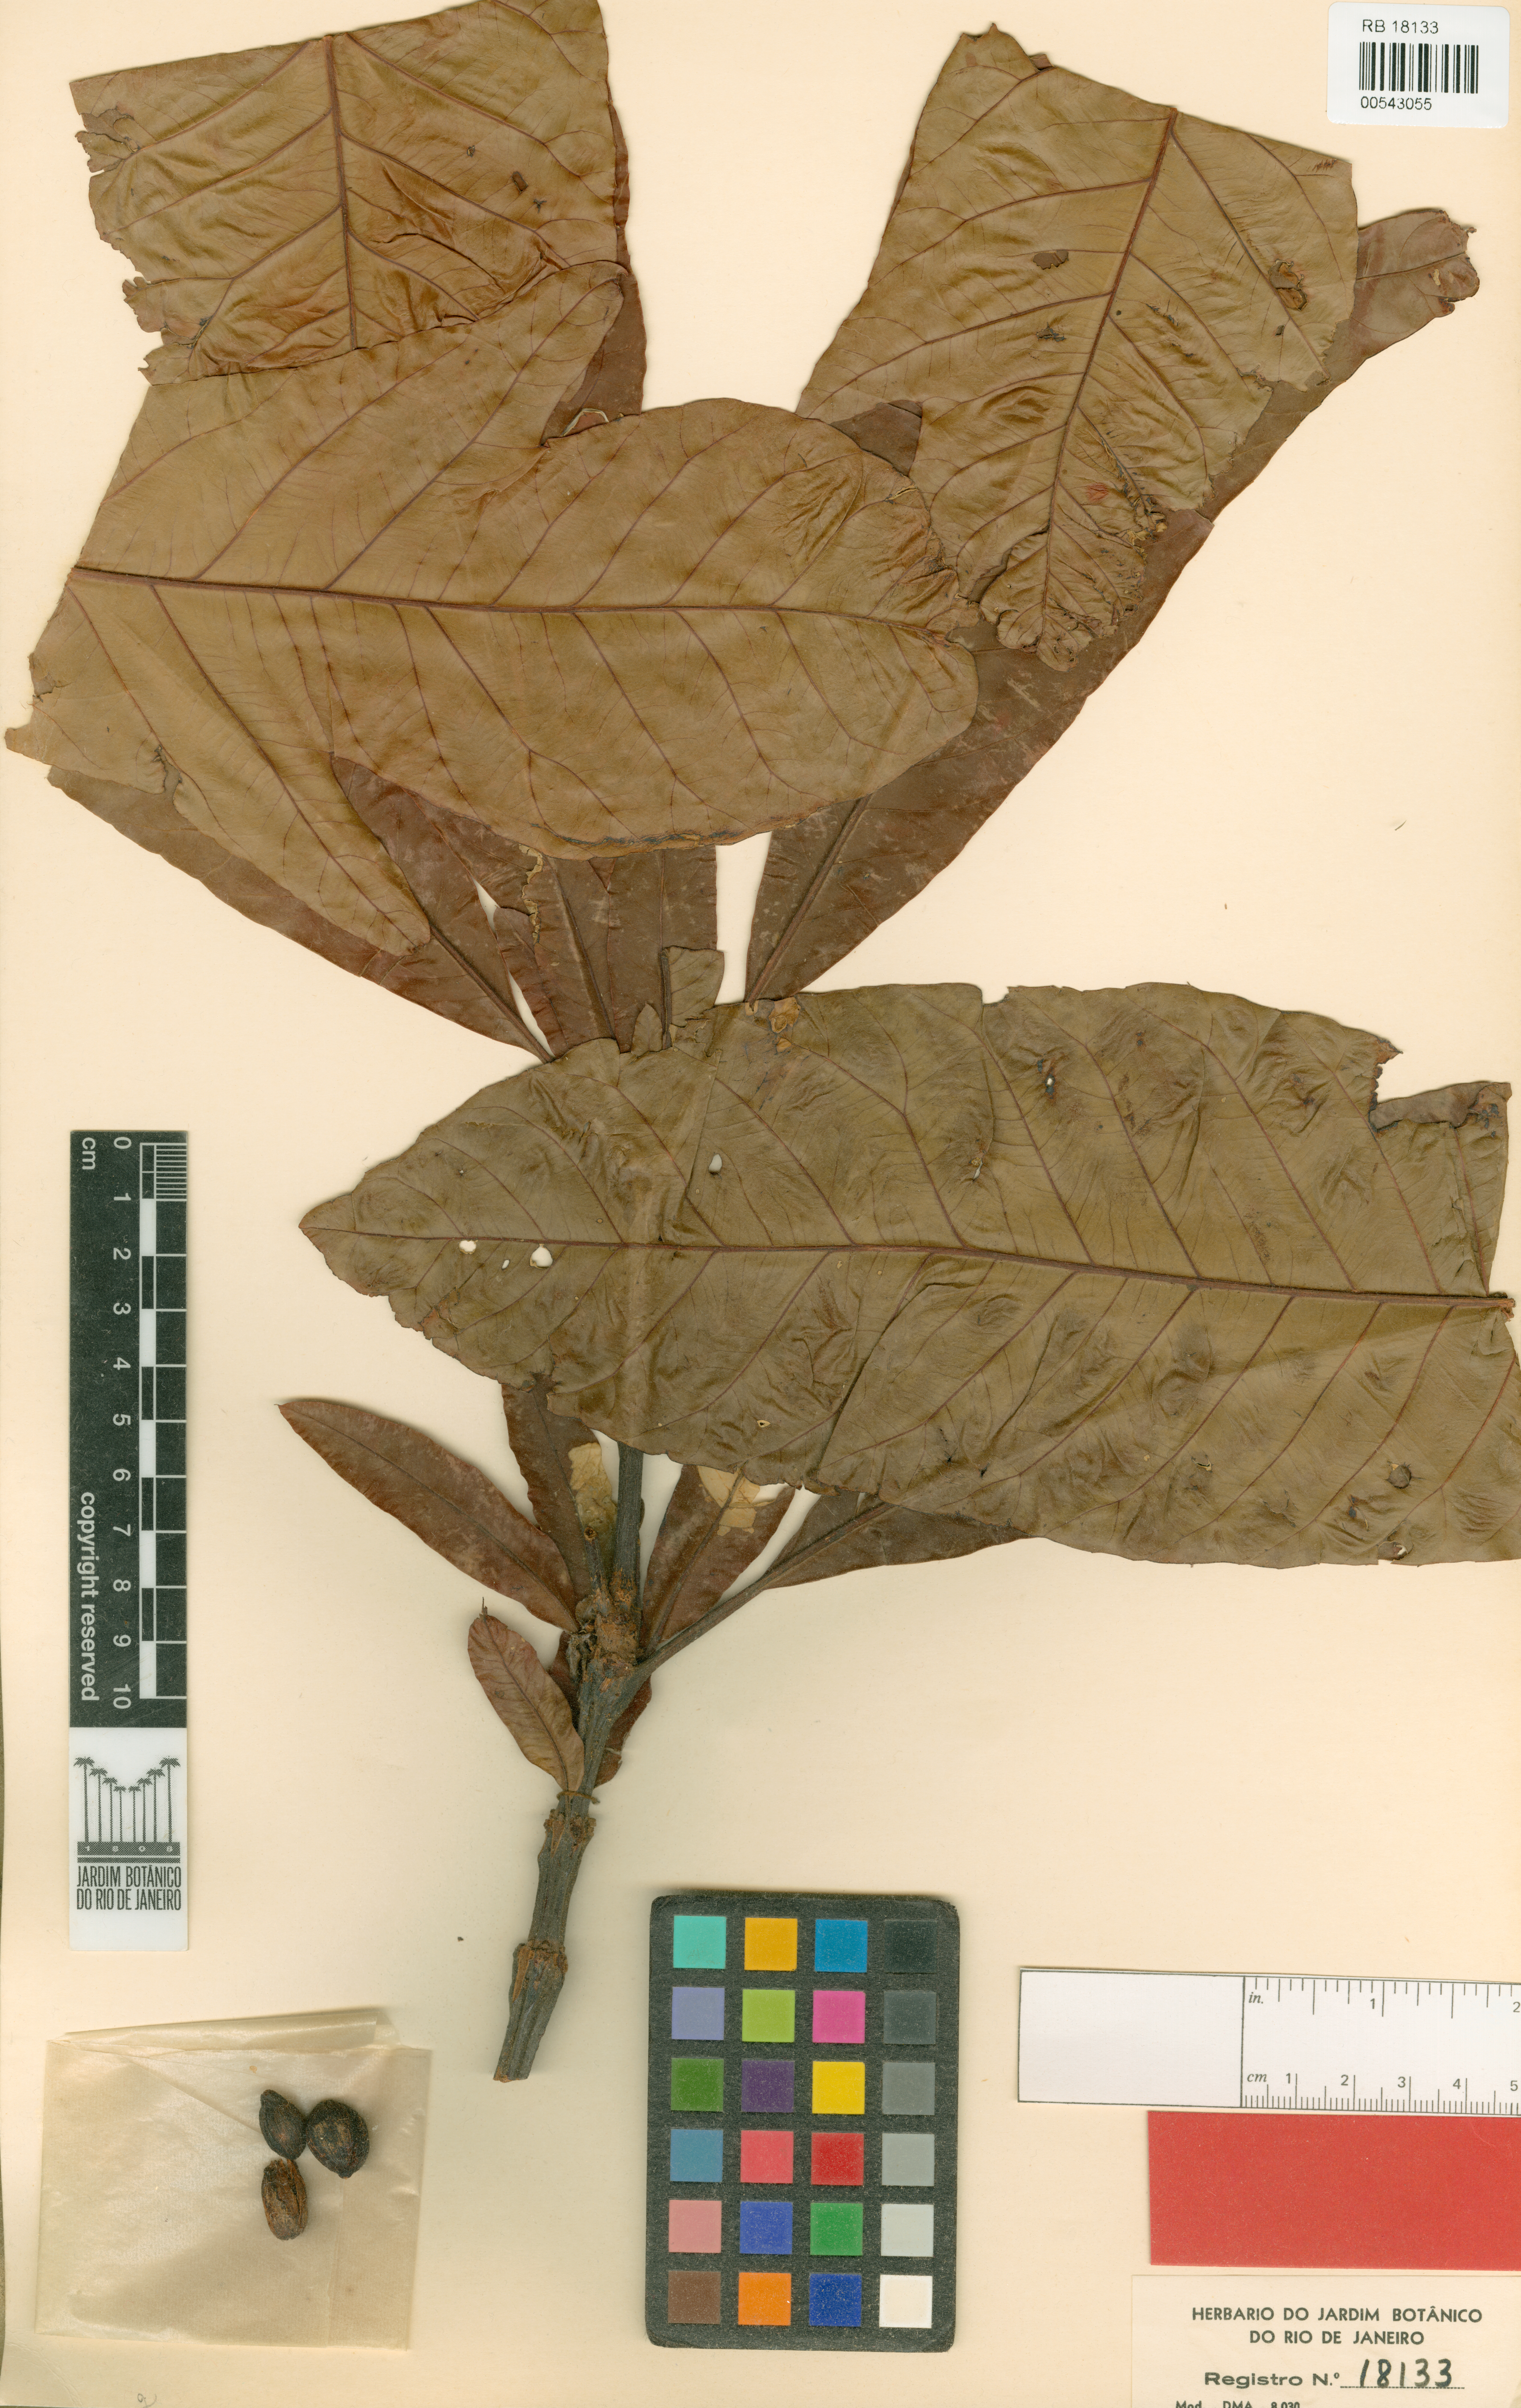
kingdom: Plantae
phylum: Tracheophyta
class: Magnoliopsida
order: Malpighiales
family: Quiinaceae
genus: Quiina
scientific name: Quiina pteridophylla
